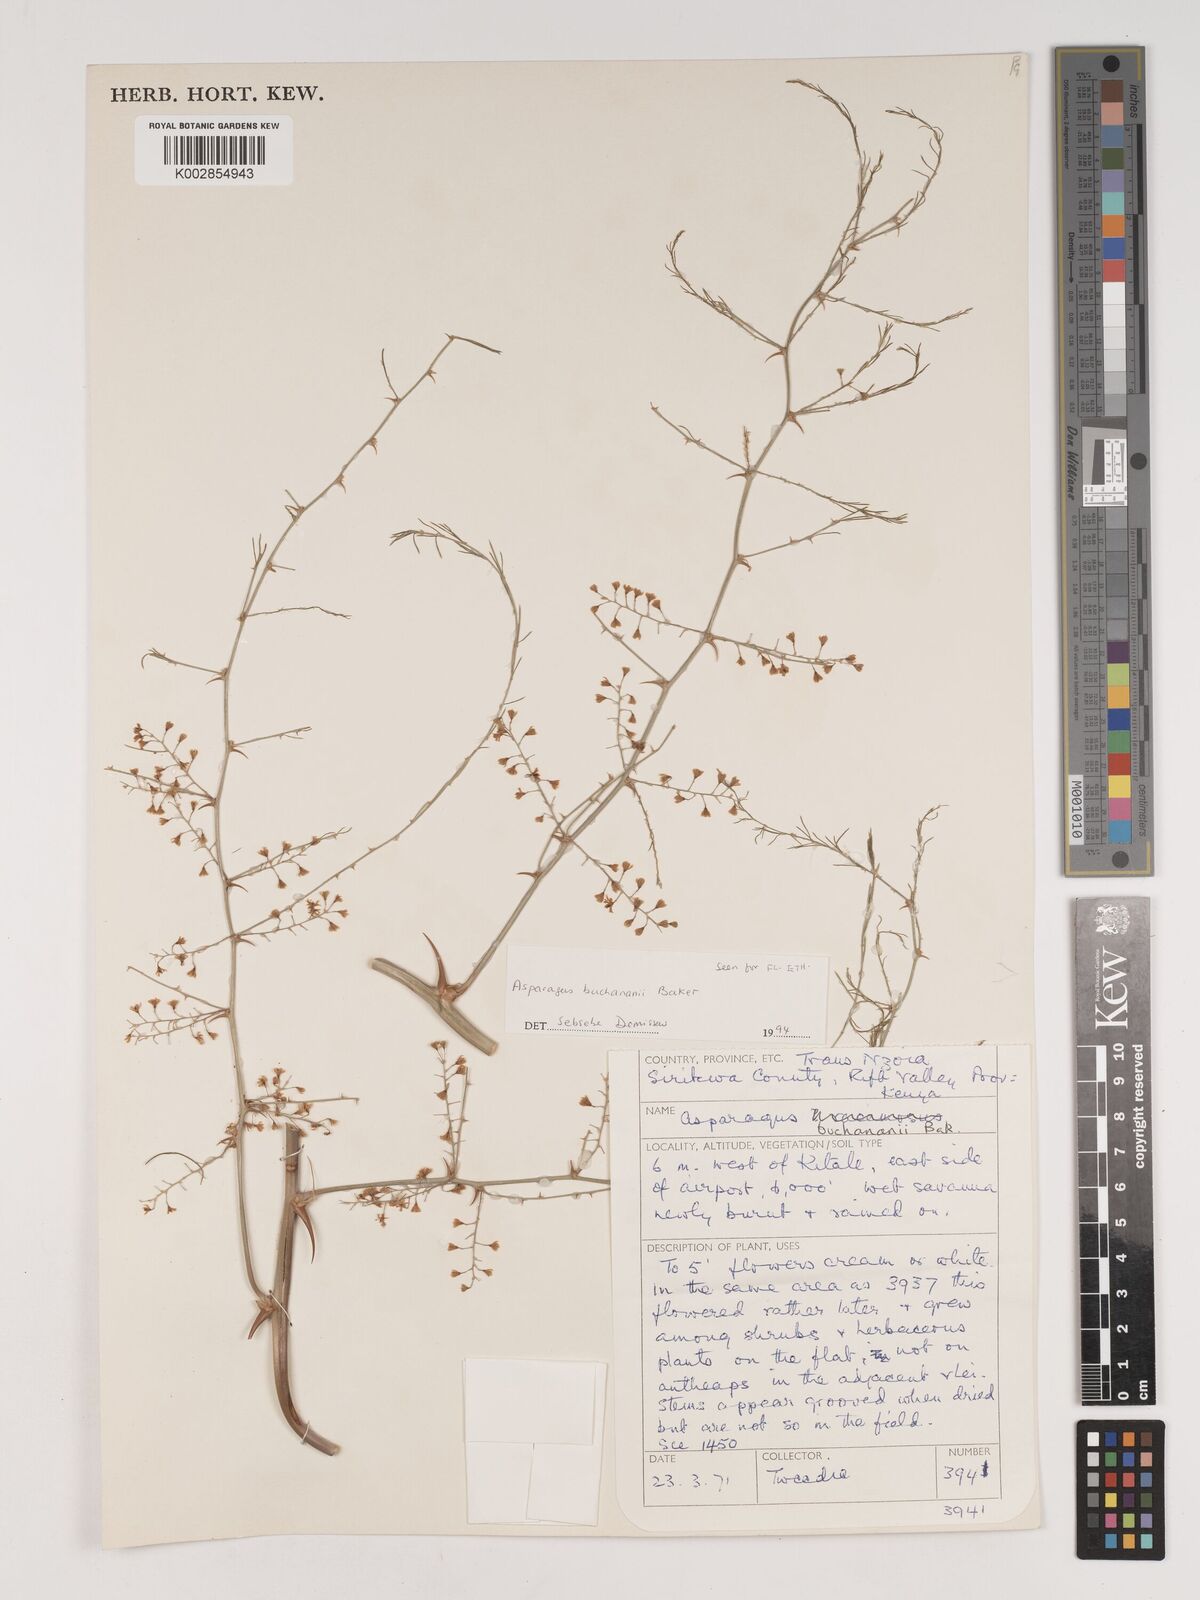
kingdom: Plantae
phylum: Tracheophyta
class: Liliopsida
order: Asparagales
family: Asparagaceae
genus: Asparagus
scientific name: Asparagus buchananii
